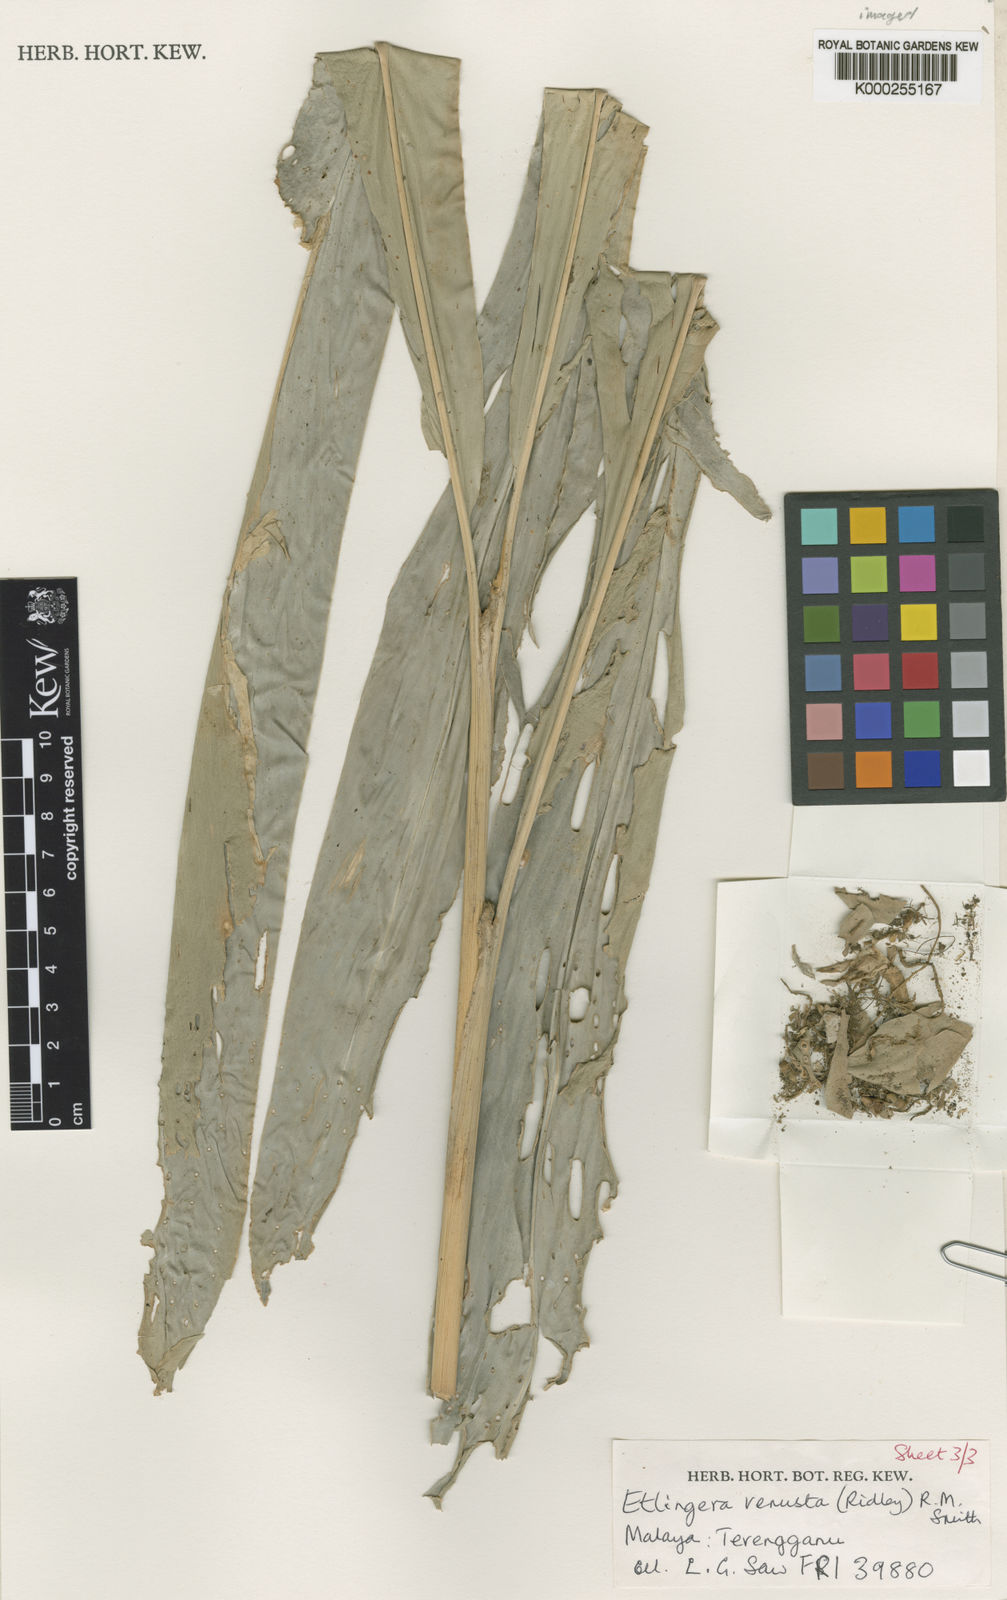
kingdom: Plantae
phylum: Tracheophyta
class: Liliopsida
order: Zingiberales
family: Zingiberaceae
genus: Etlingera
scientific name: Etlingera corneri
